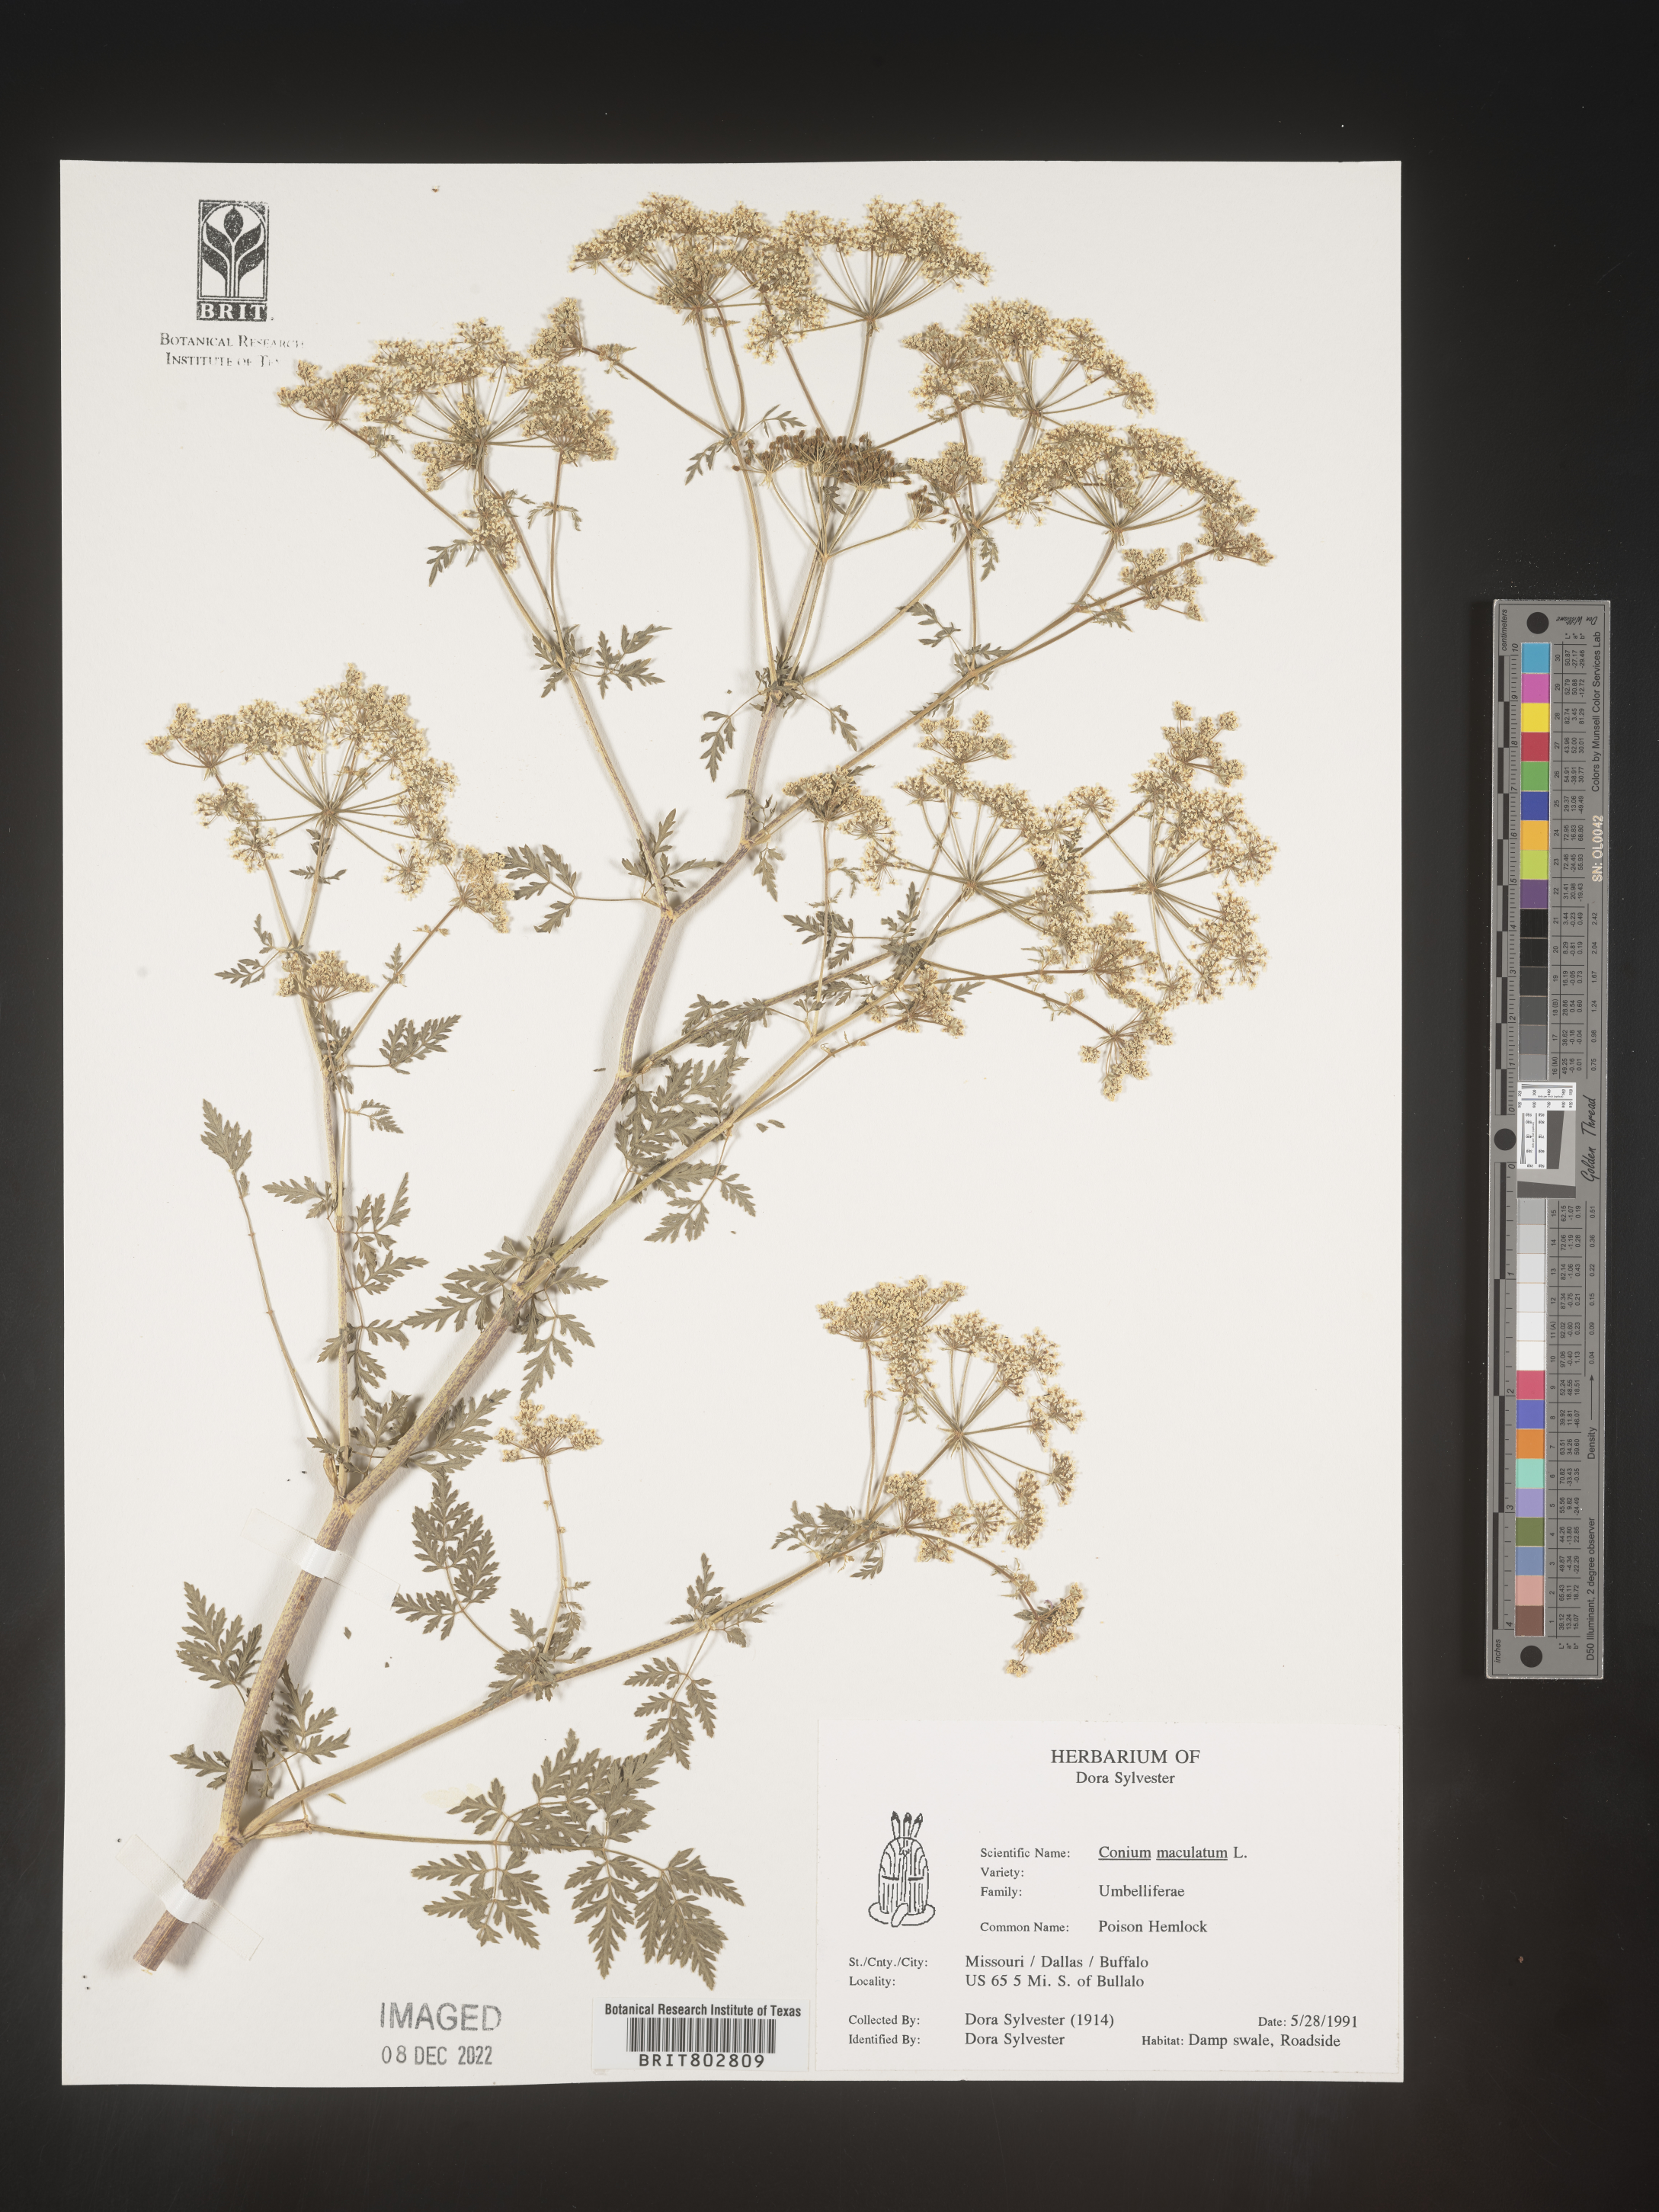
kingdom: Plantae
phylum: Tracheophyta
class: Magnoliopsida
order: Apiales
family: Apiaceae
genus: Conium
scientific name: Conium maculatum
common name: Hemlock
